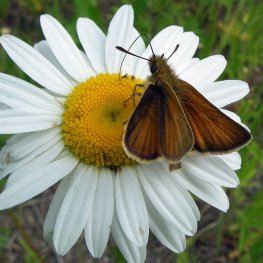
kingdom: Animalia
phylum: Arthropoda
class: Insecta
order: Lepidoptera
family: Hesperiidae
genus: Thymelicus
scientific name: Thymelicus lineola
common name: European Skipper
